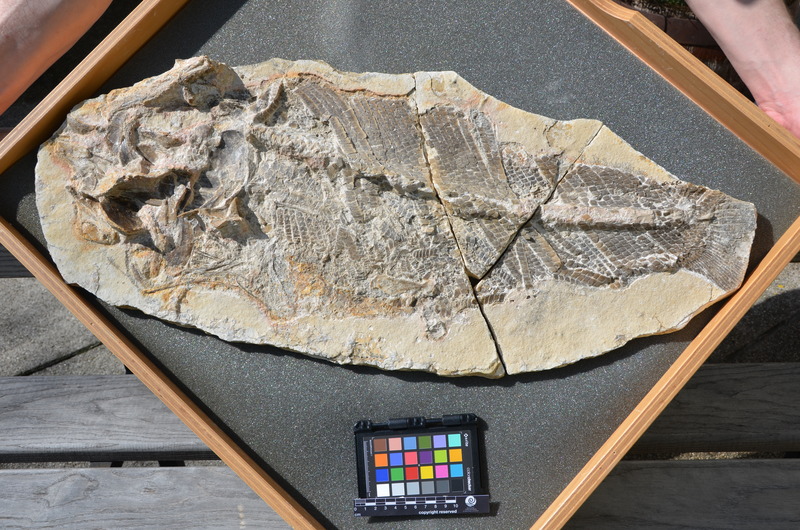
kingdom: Animalia
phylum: Chordata
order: Lepisosteiformes
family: Lepidotidae
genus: Lepidotes
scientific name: Lepidotes
